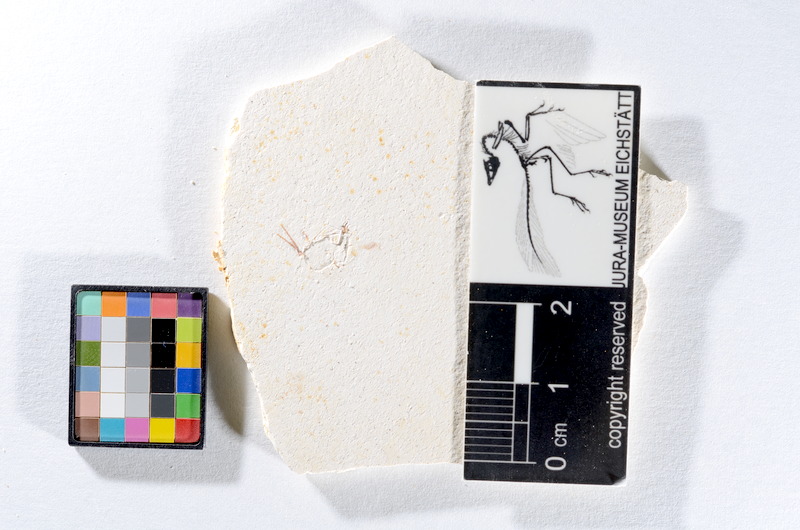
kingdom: Animalia
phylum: Chordata
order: Salmoniformes
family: Orthogonikleithridae
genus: Orthogonikleithrus
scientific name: Orthogonikleithrus hoelli
